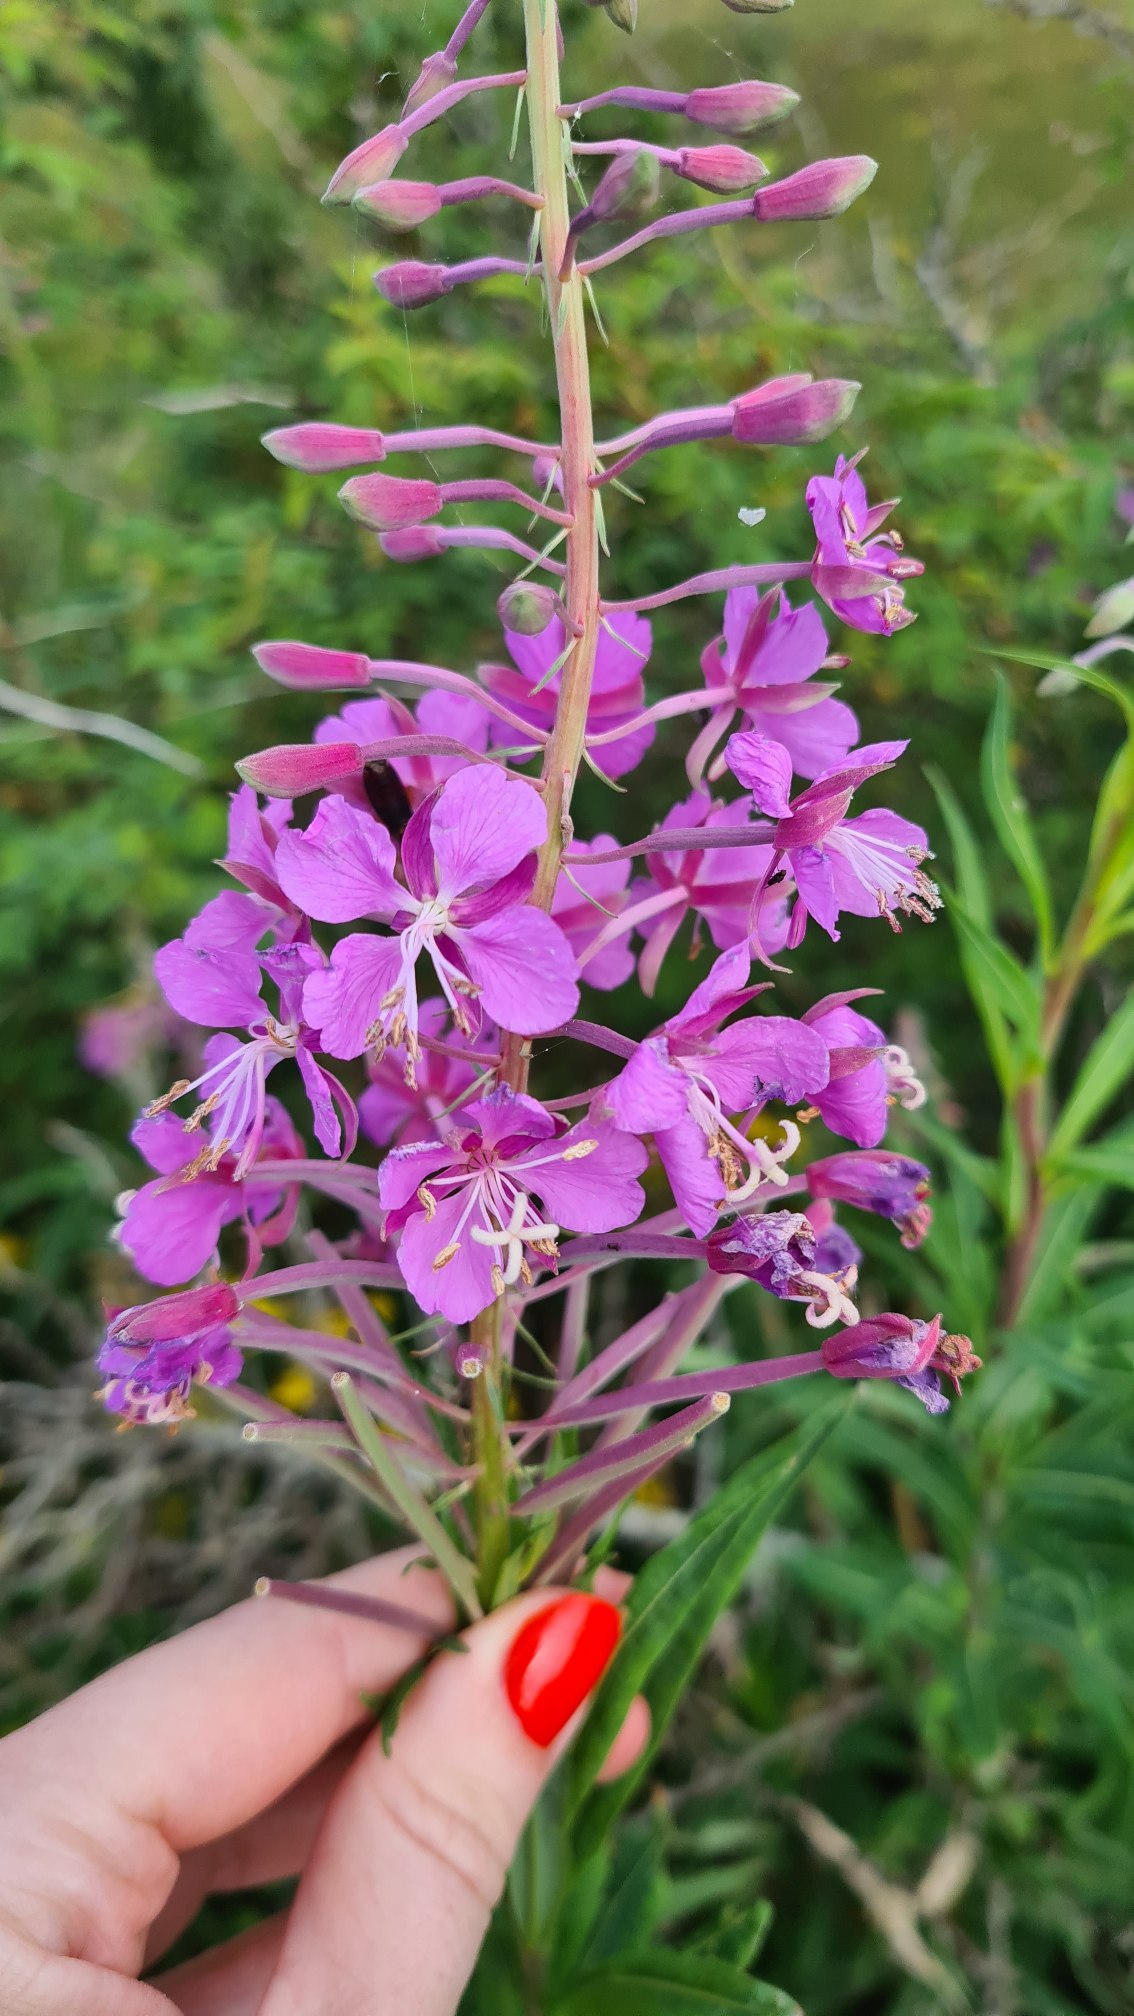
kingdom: Plantae
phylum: Tracheophyta
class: Magnoliopsida
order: Myrtales
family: Onagraceae
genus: Chamaenerion
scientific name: Chamaenerion angustifolium
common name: Gederams
